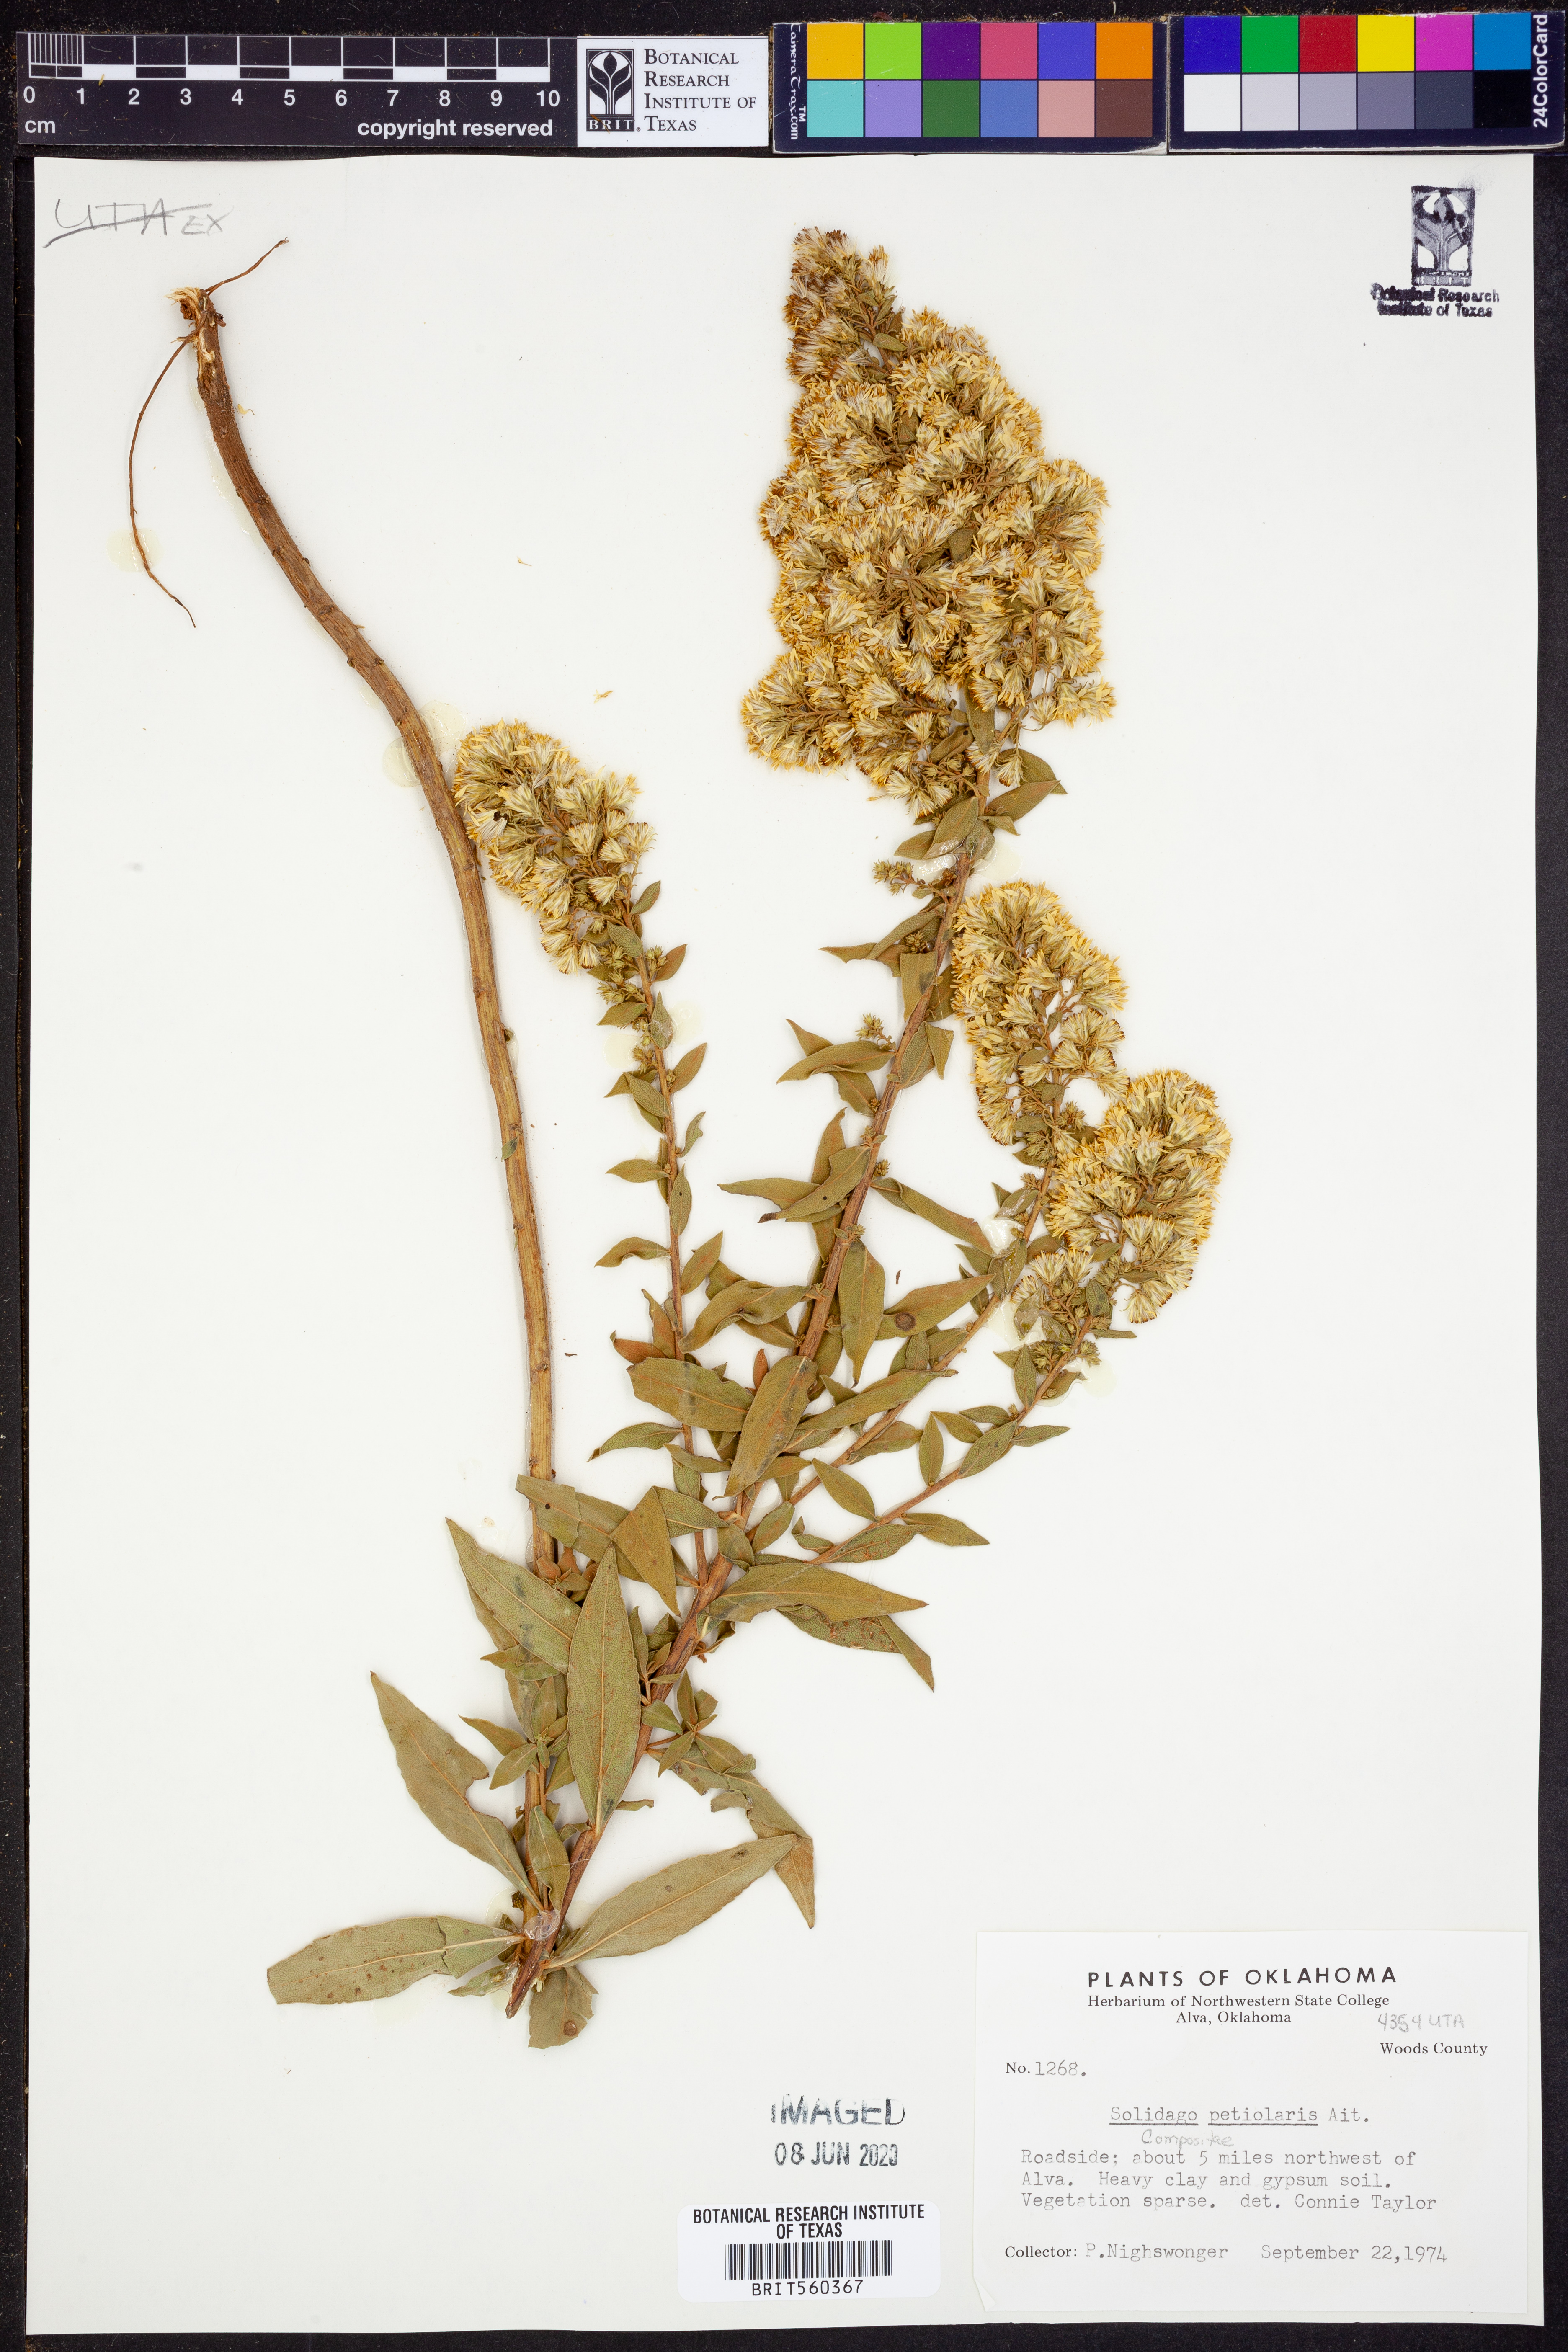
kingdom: Plantae
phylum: Tracheophyta
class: Magnoliopsida
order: Asterales
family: Asteraceae
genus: Solidago
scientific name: Solidago petiolaris
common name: Downy ragged goldenrod
